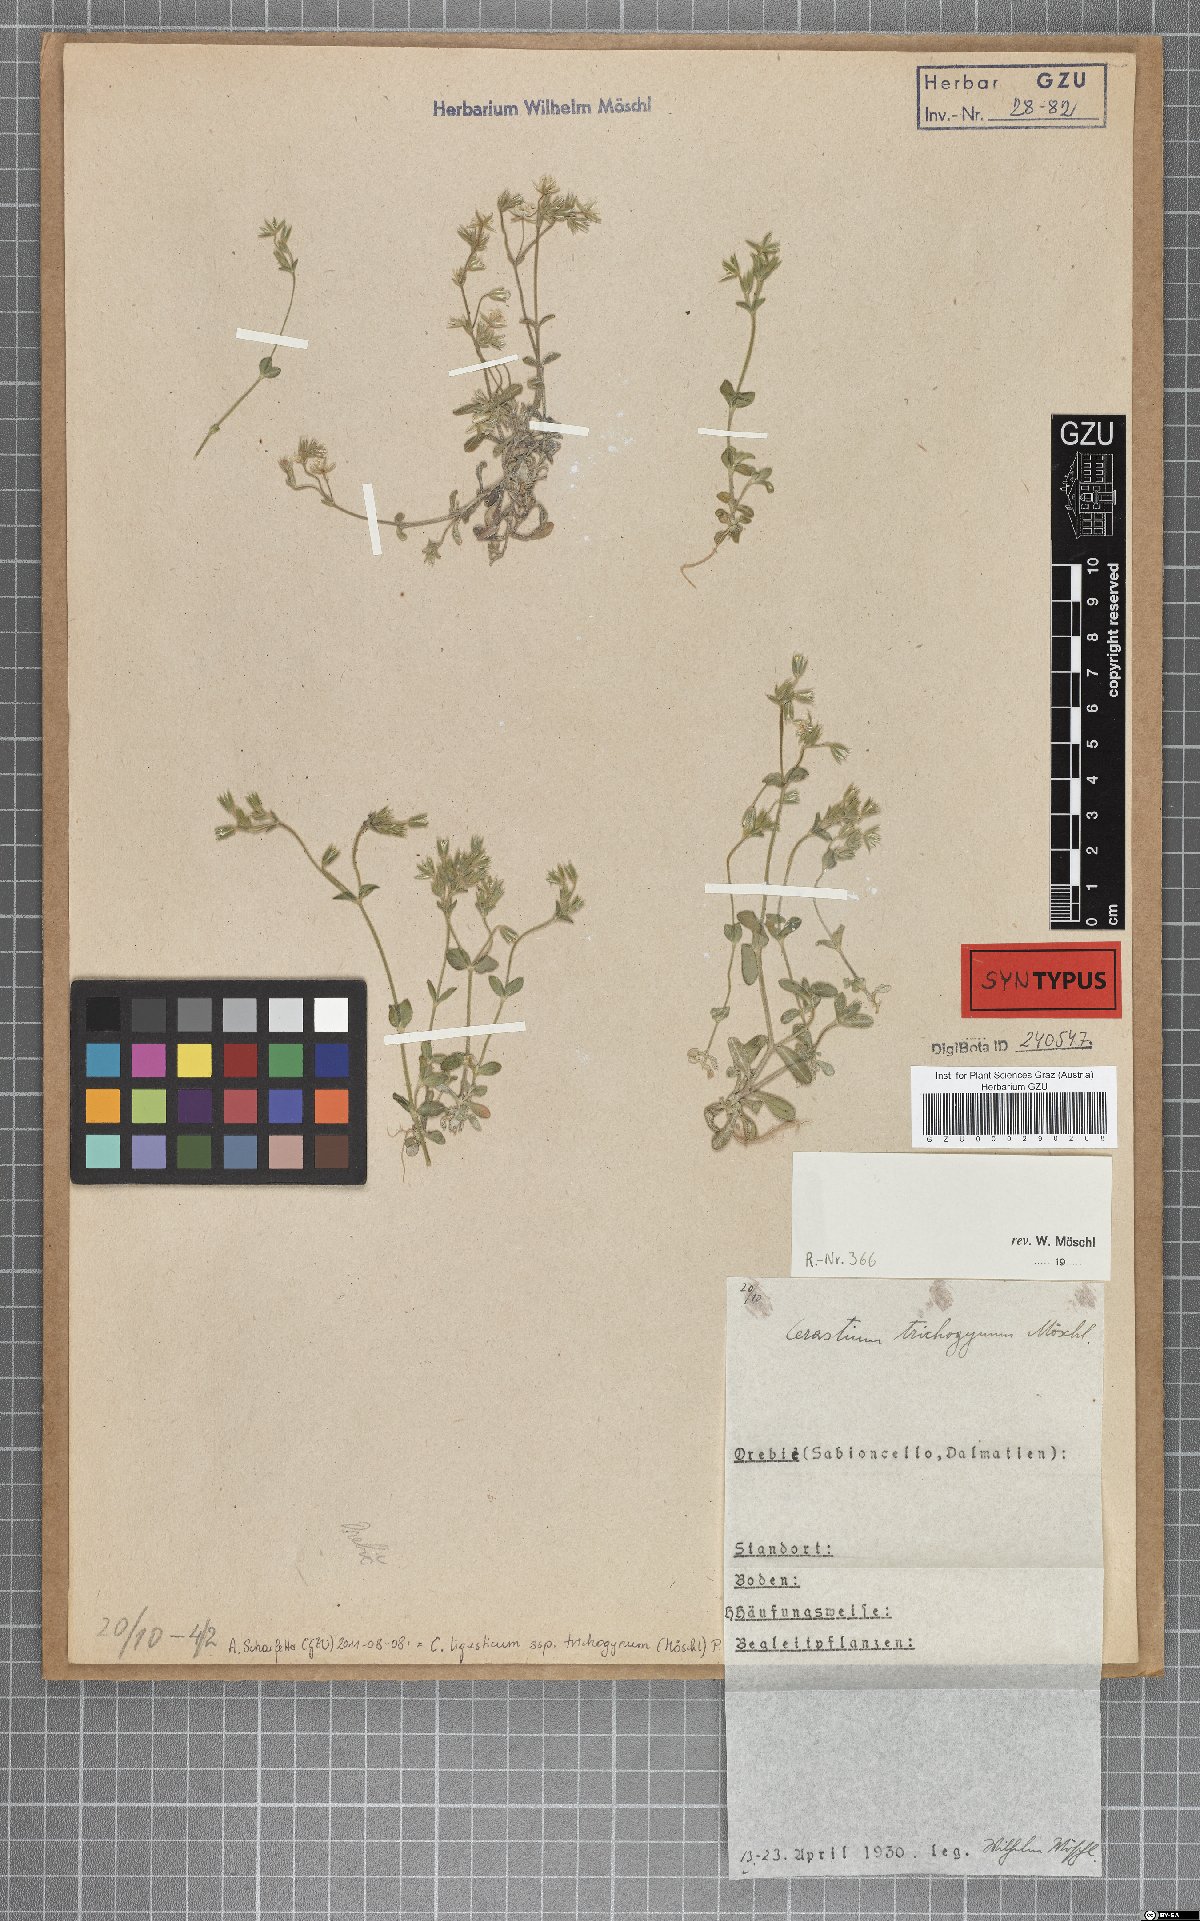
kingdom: Plantae
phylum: Tracheophyta
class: Magnoliopsida
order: Caryophyllales
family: Caryophyllaceae
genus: Cerastium
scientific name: Cerastium ligusticum
